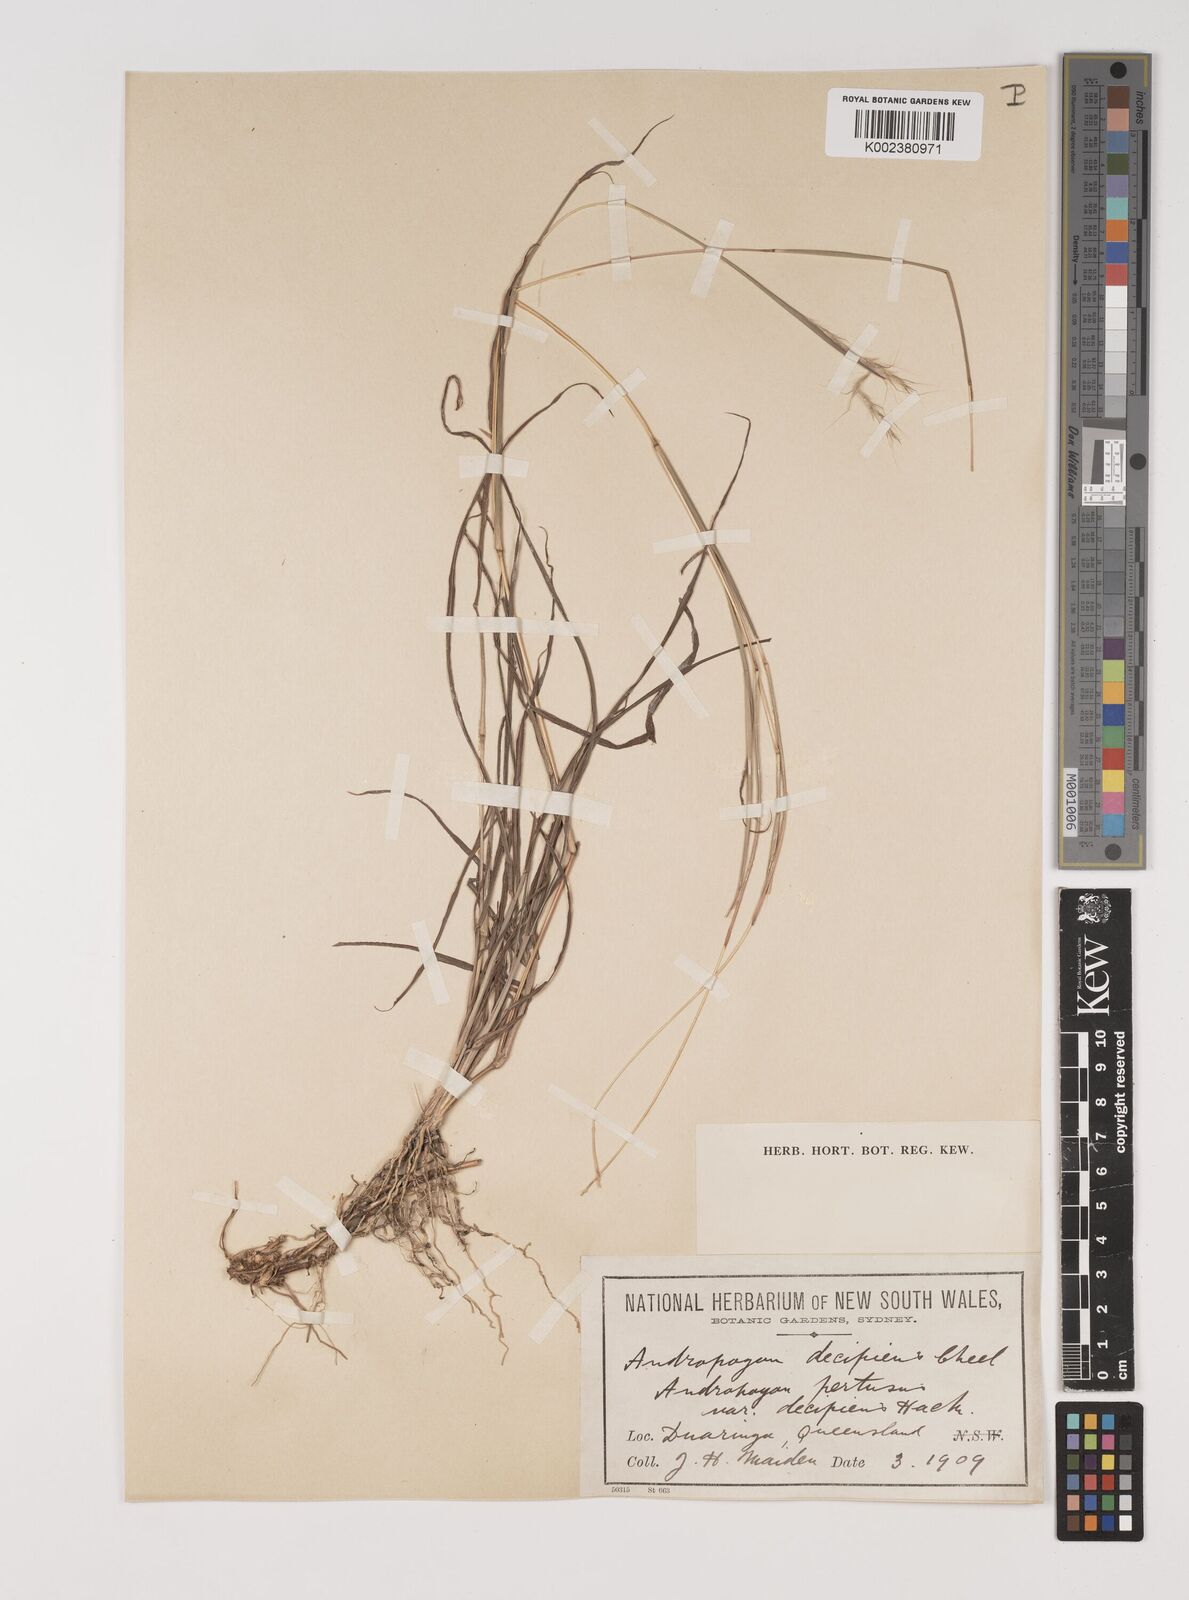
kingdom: Plantae
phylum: Tracheophyta
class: Liliopsida
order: Poales
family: Poaceae
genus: Bothriochloa
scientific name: Bothriochloa decipiens
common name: Pitted-bluegrass
